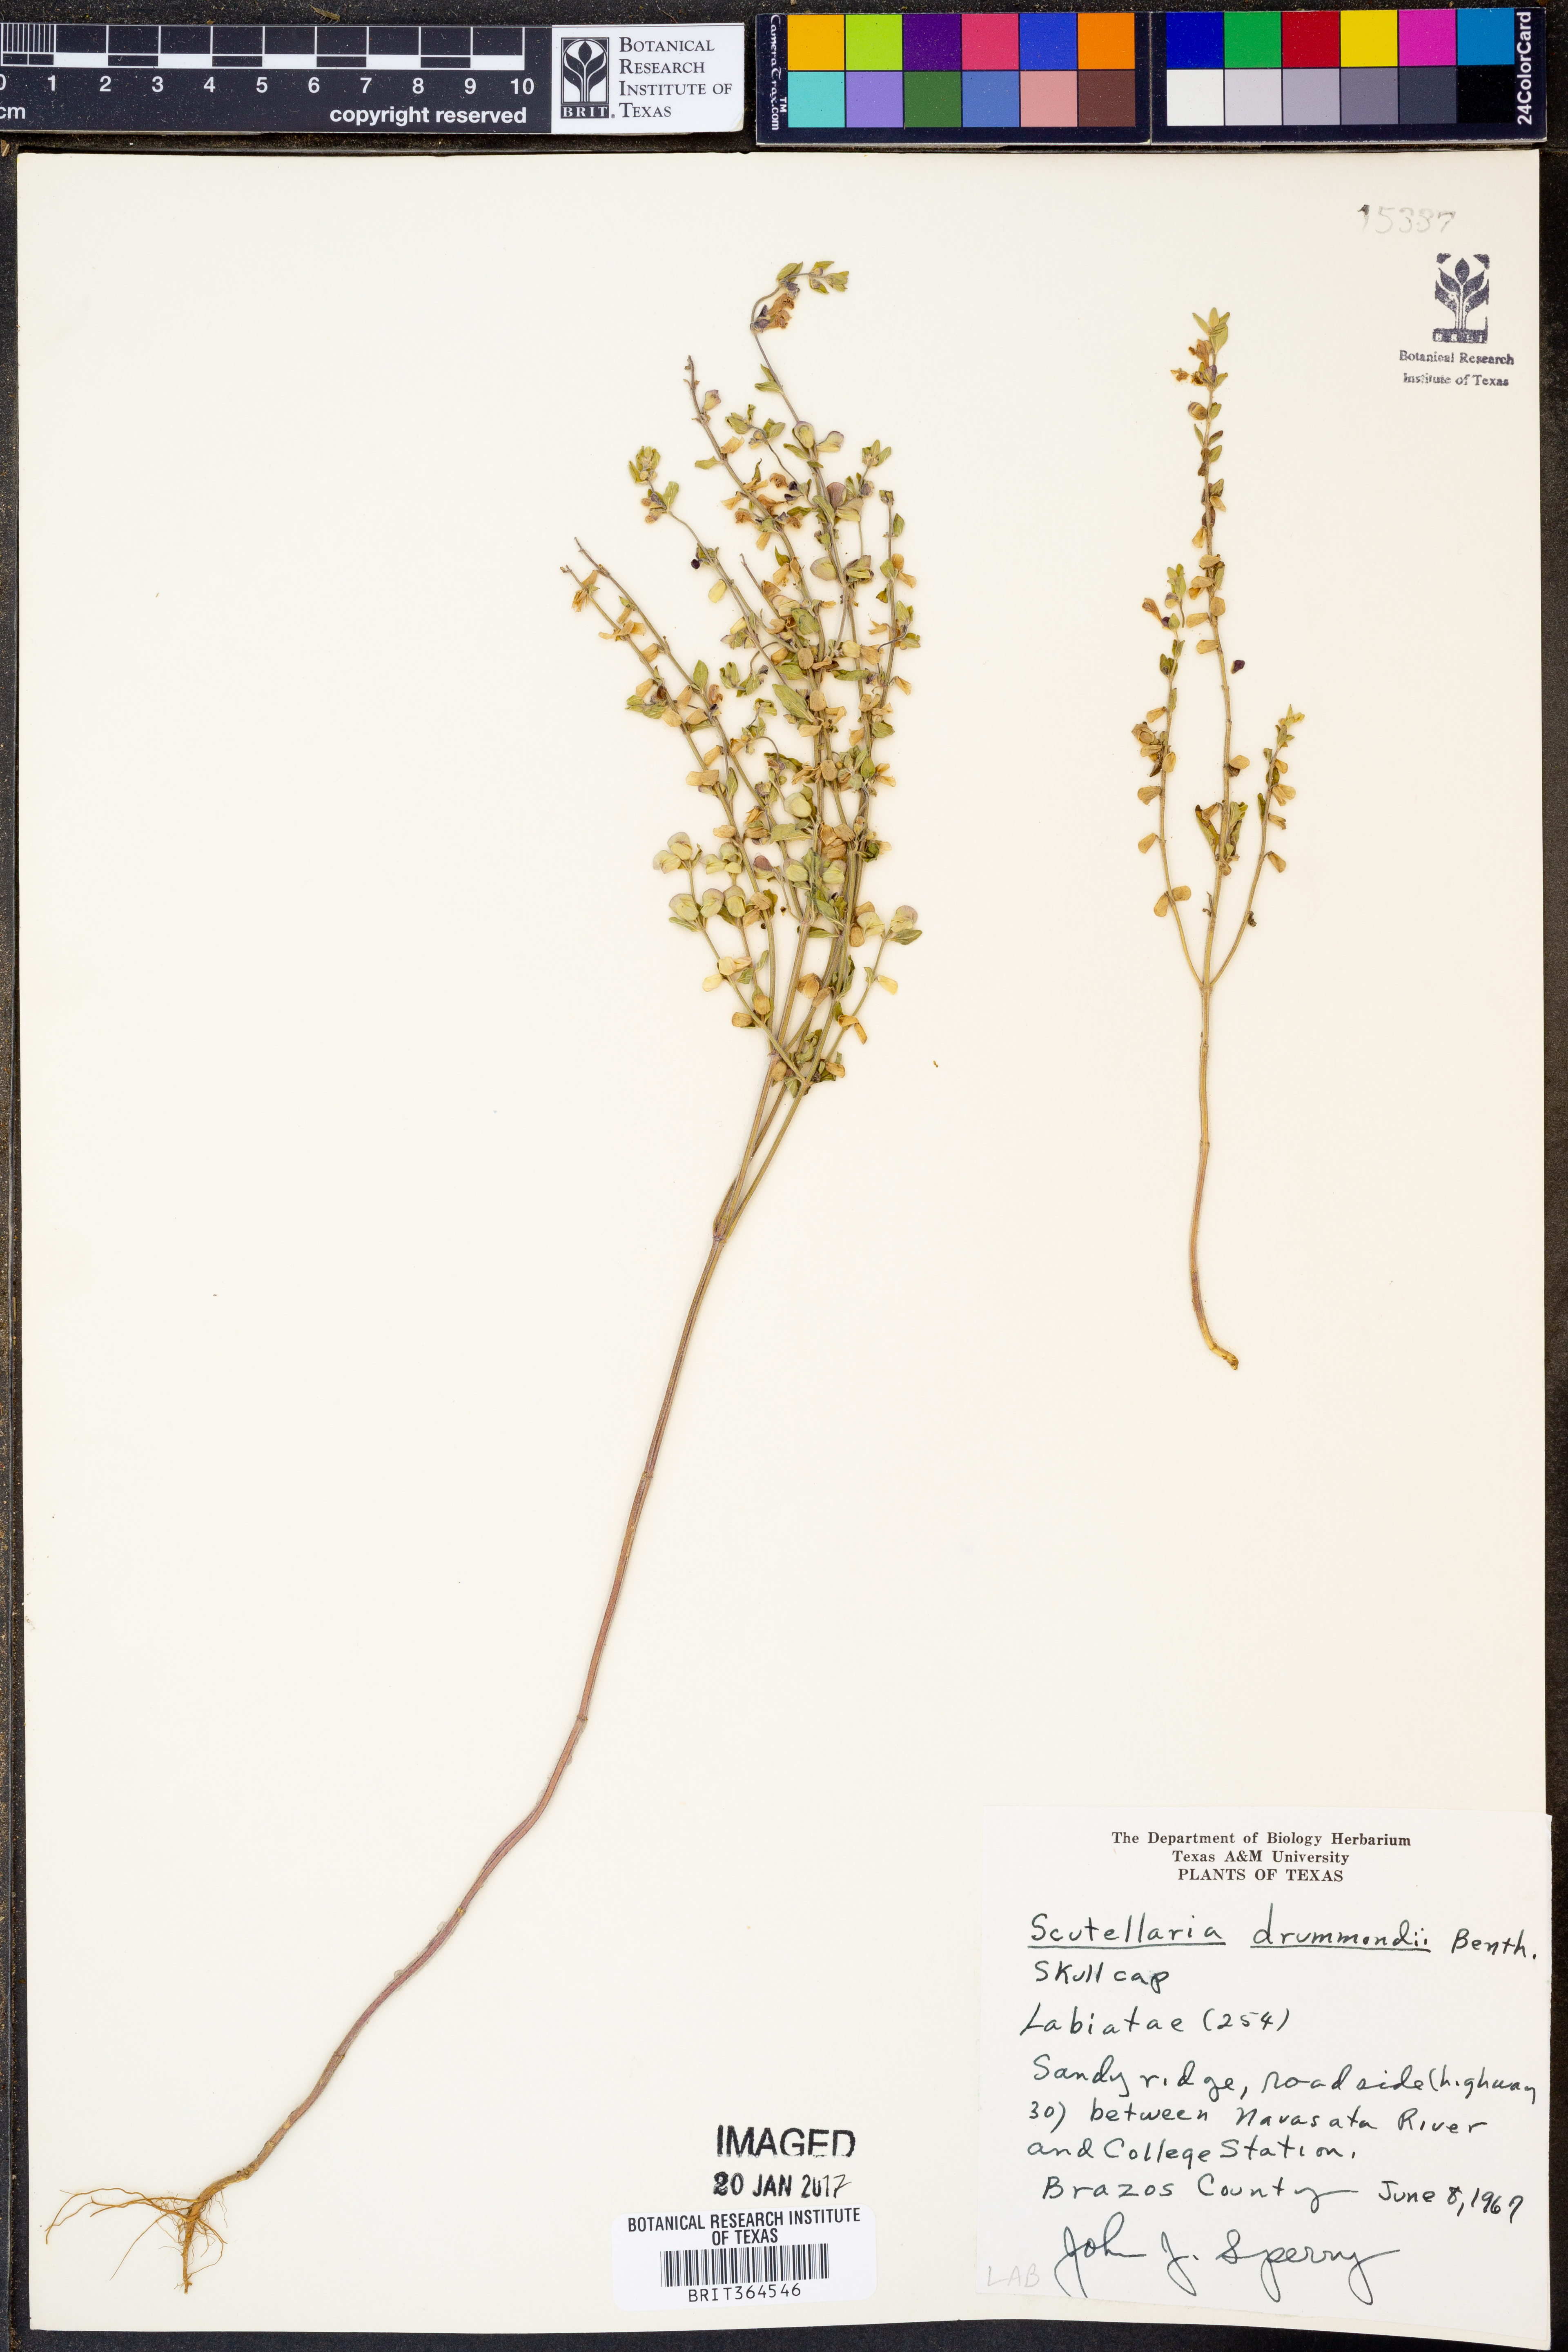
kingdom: Plantae
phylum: Tracheophyta
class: Magnoliopsida
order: Lamiales
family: Lamiaceae
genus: Scutellaria
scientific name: Scutellaria drummondii
